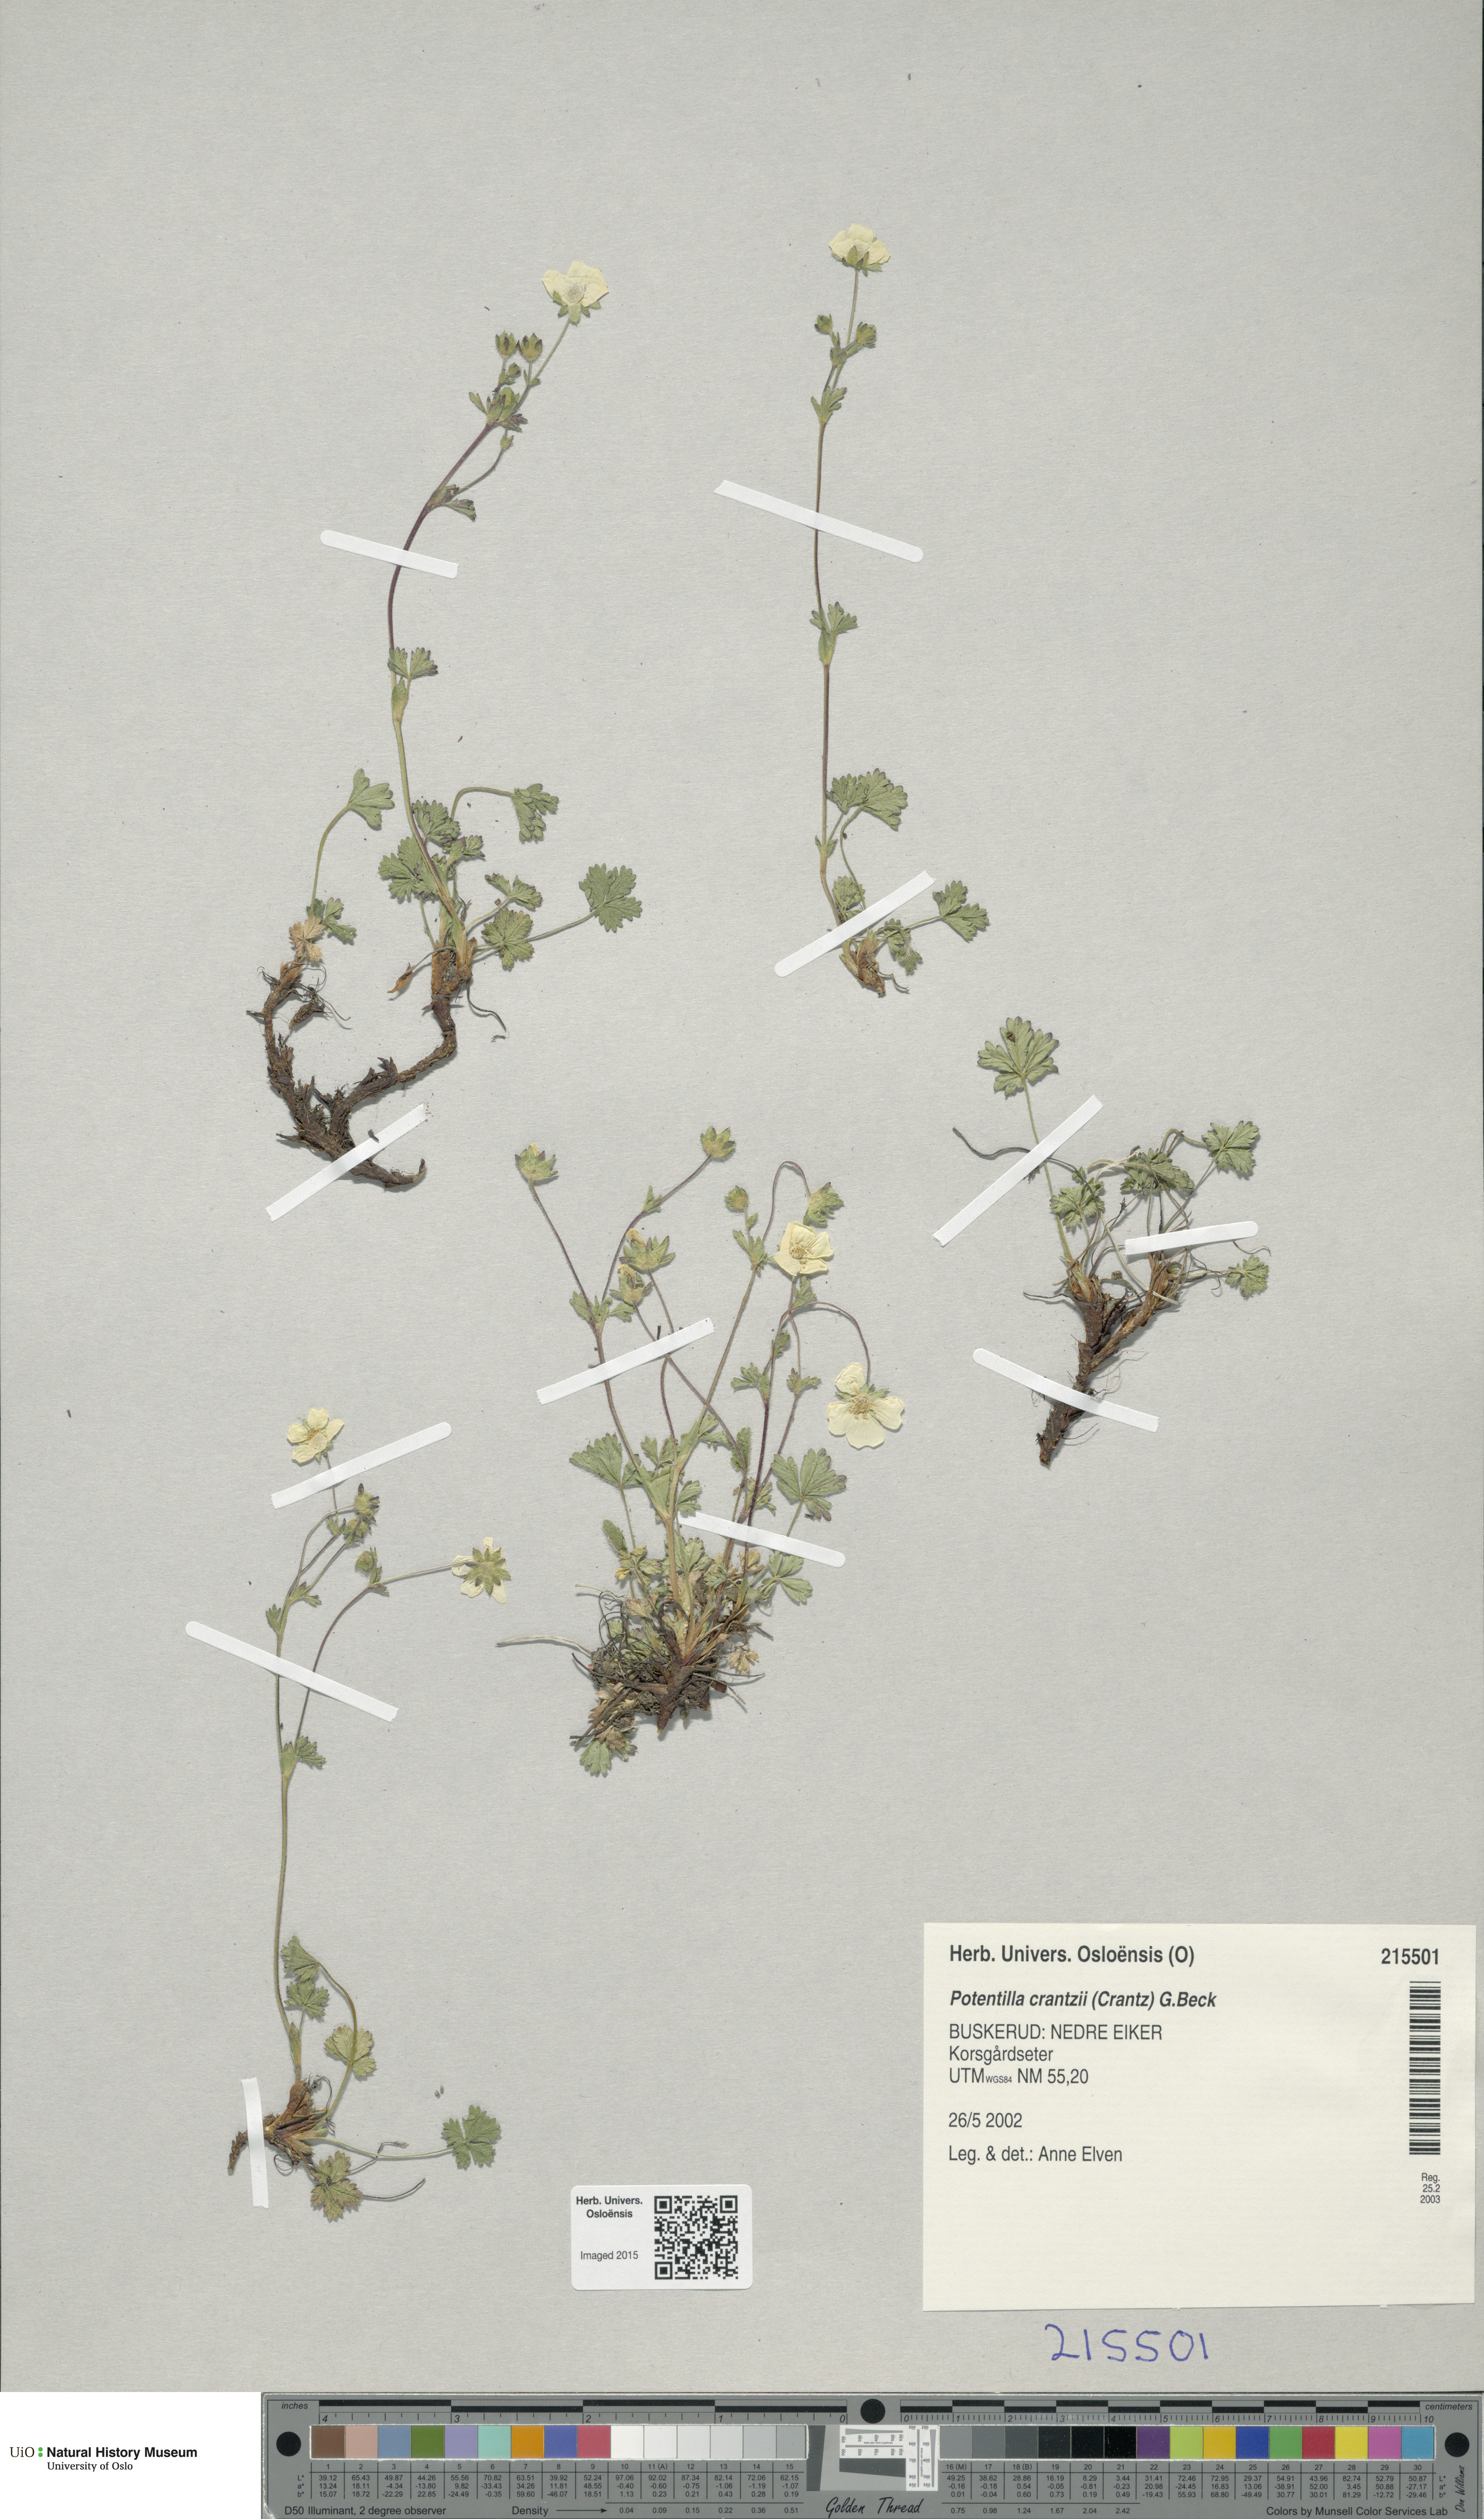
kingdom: Plantae
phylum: Tracheophyta
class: Magnoliopsida
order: Rosales
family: Rosaceae
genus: Potentilla
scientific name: Potentilla crantzii
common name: Alpine cinquefoil
